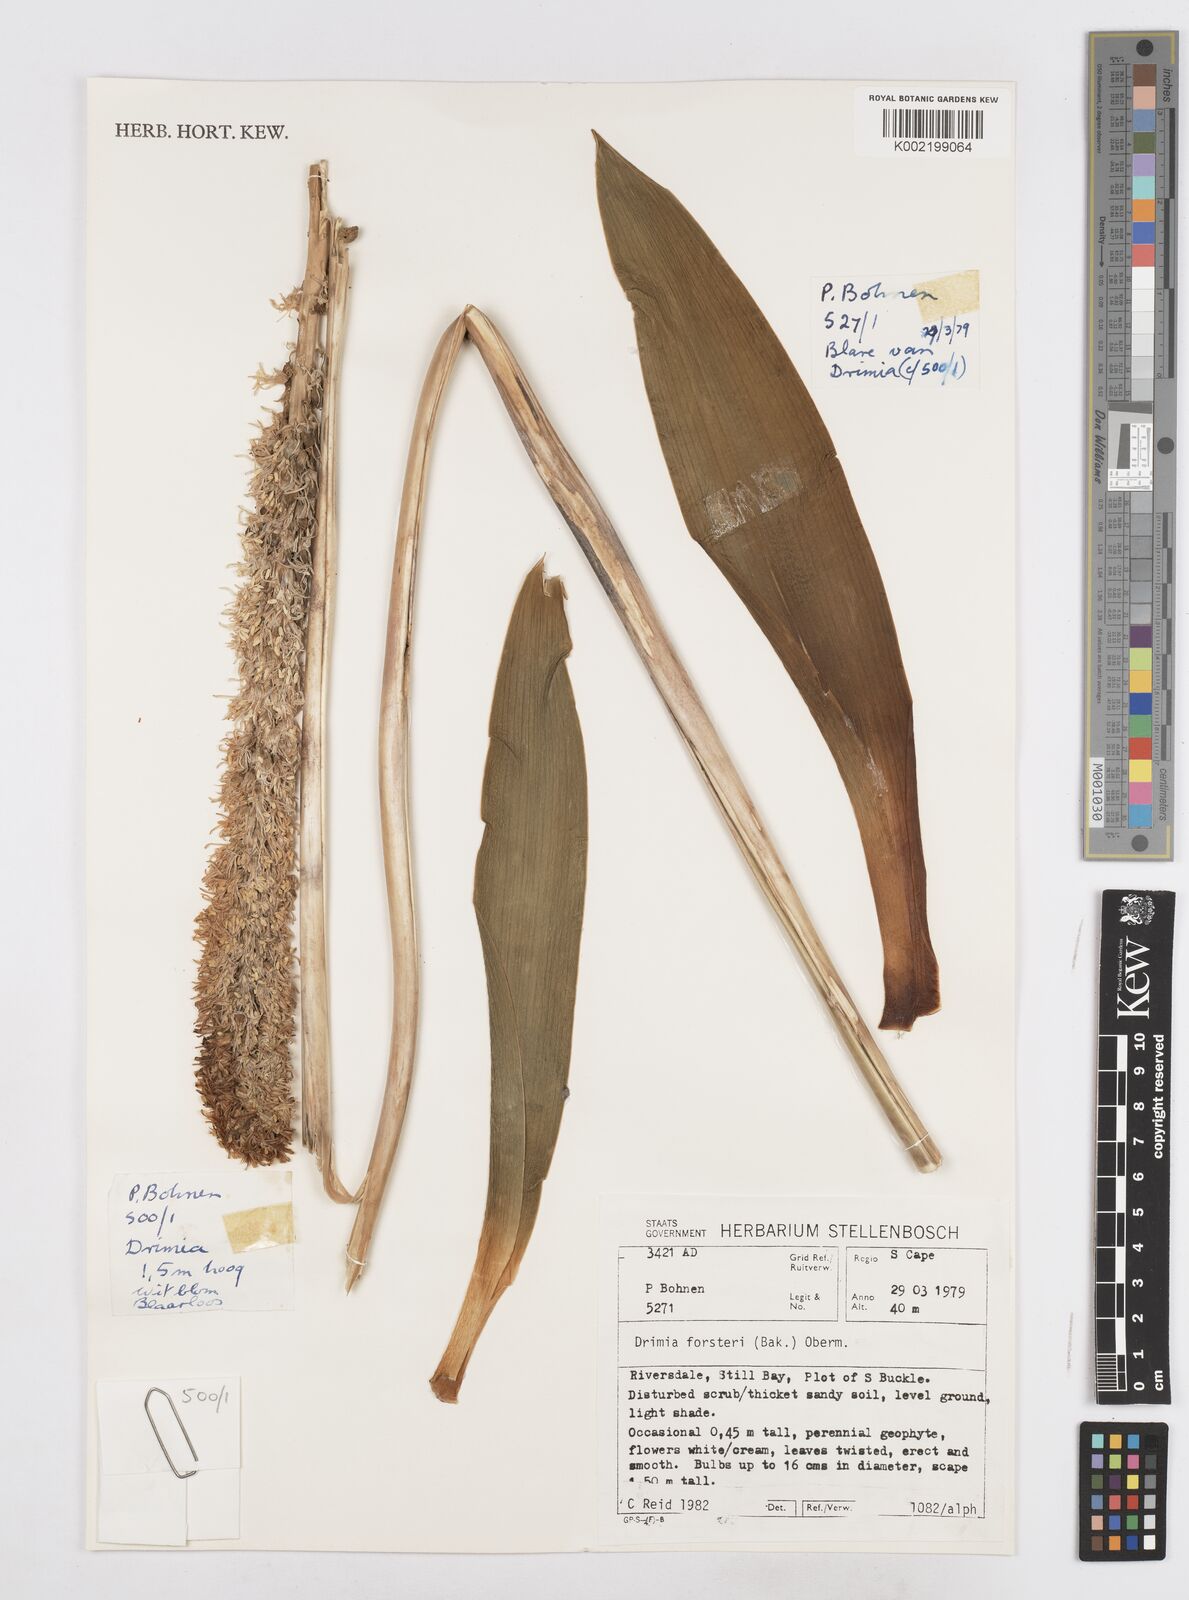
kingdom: Plantae
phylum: Tracheophyta
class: Liliopsida
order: Asparagales
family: Asparagaceae
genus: Drimia
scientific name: Drimia capensis
